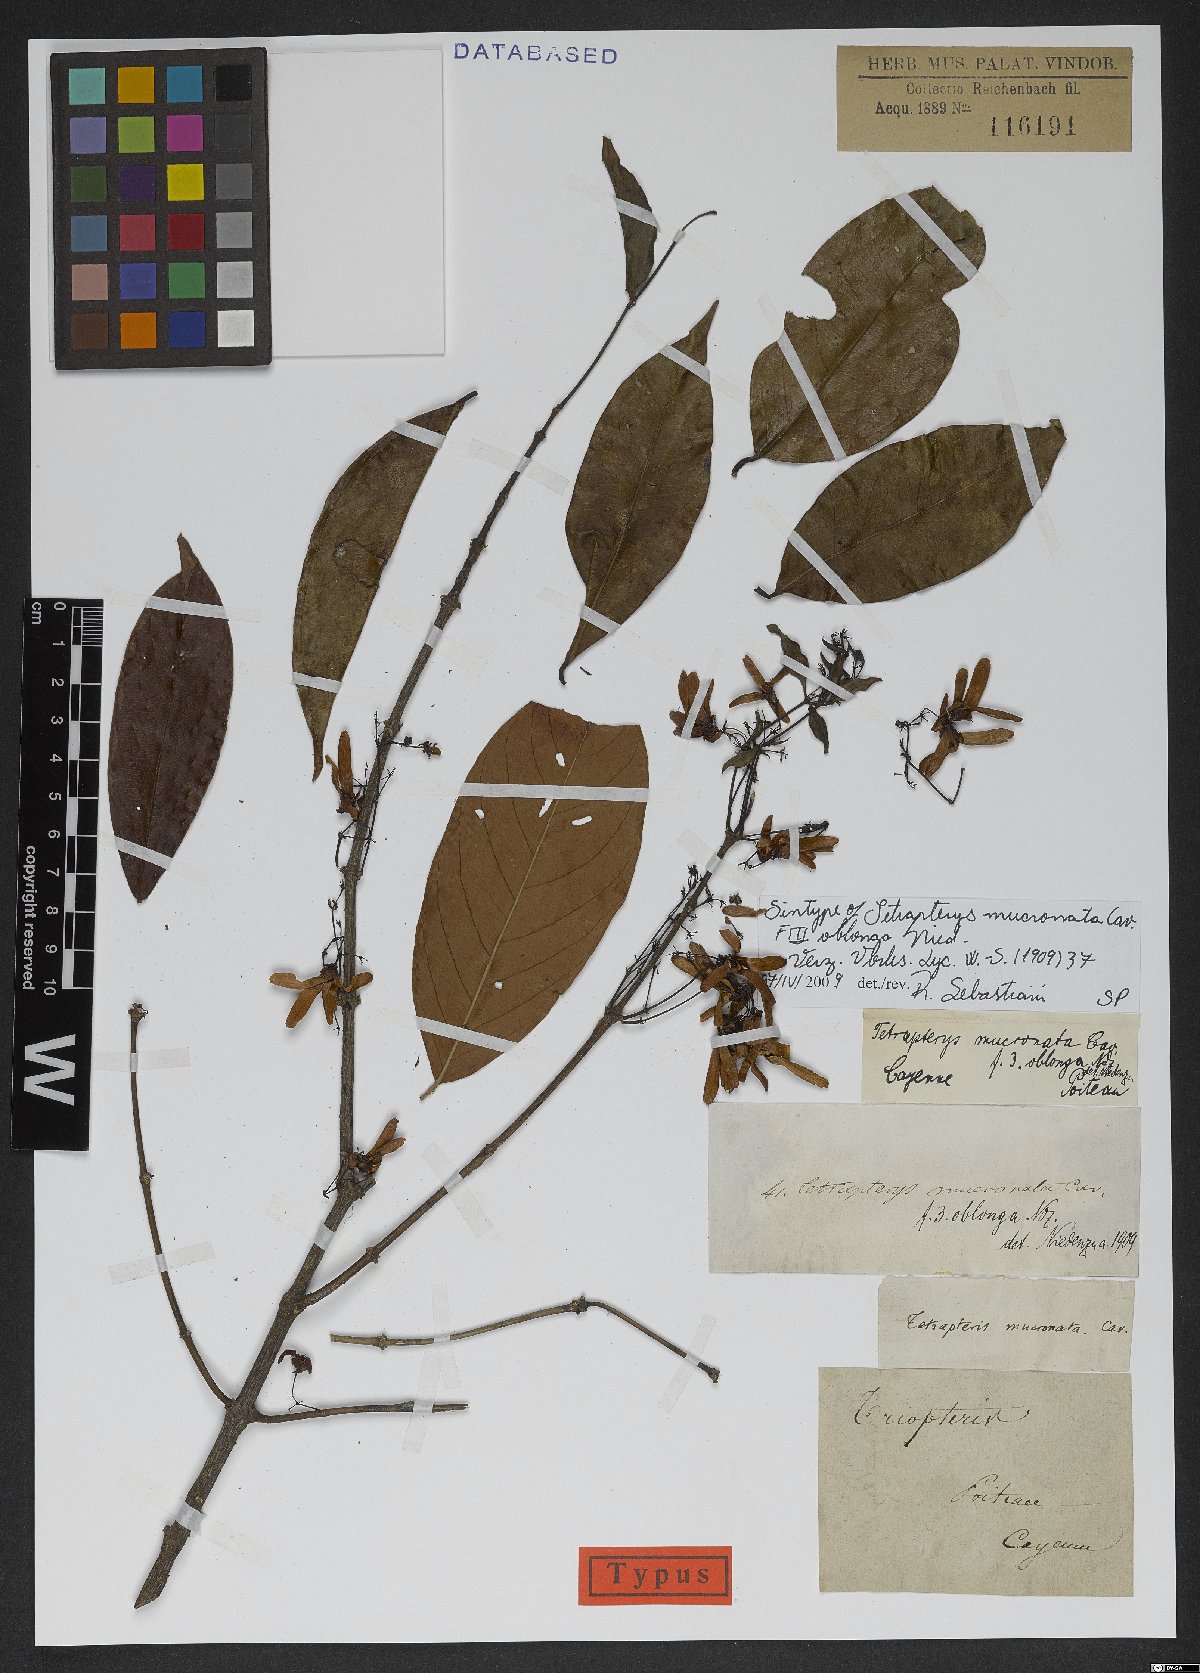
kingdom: Plantae
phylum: Tracheophyta
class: Magnoliopsida
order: Malpighiales
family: Malpighiaceae
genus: Tetrapterys
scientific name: Tetrapterys mucronata
